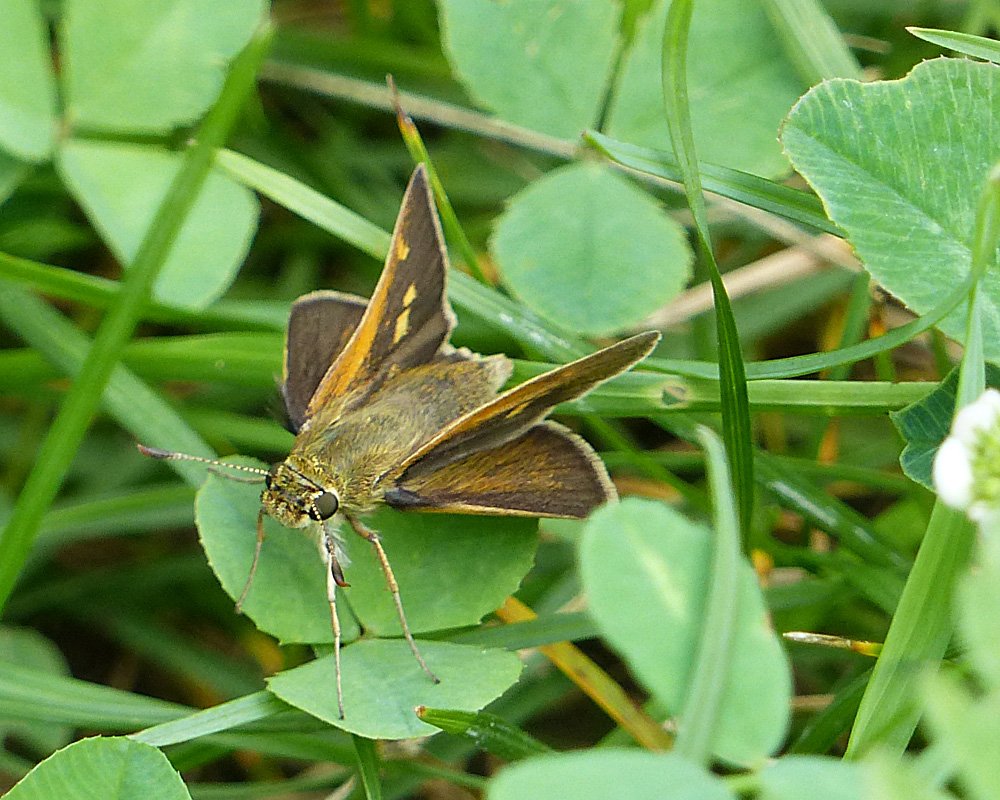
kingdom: Animalia
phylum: Arthropoda
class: Insecta
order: Lepidoptera
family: Hesperiidae
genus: Polites
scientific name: Polites themistocles
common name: Tawny-edged Skipper
